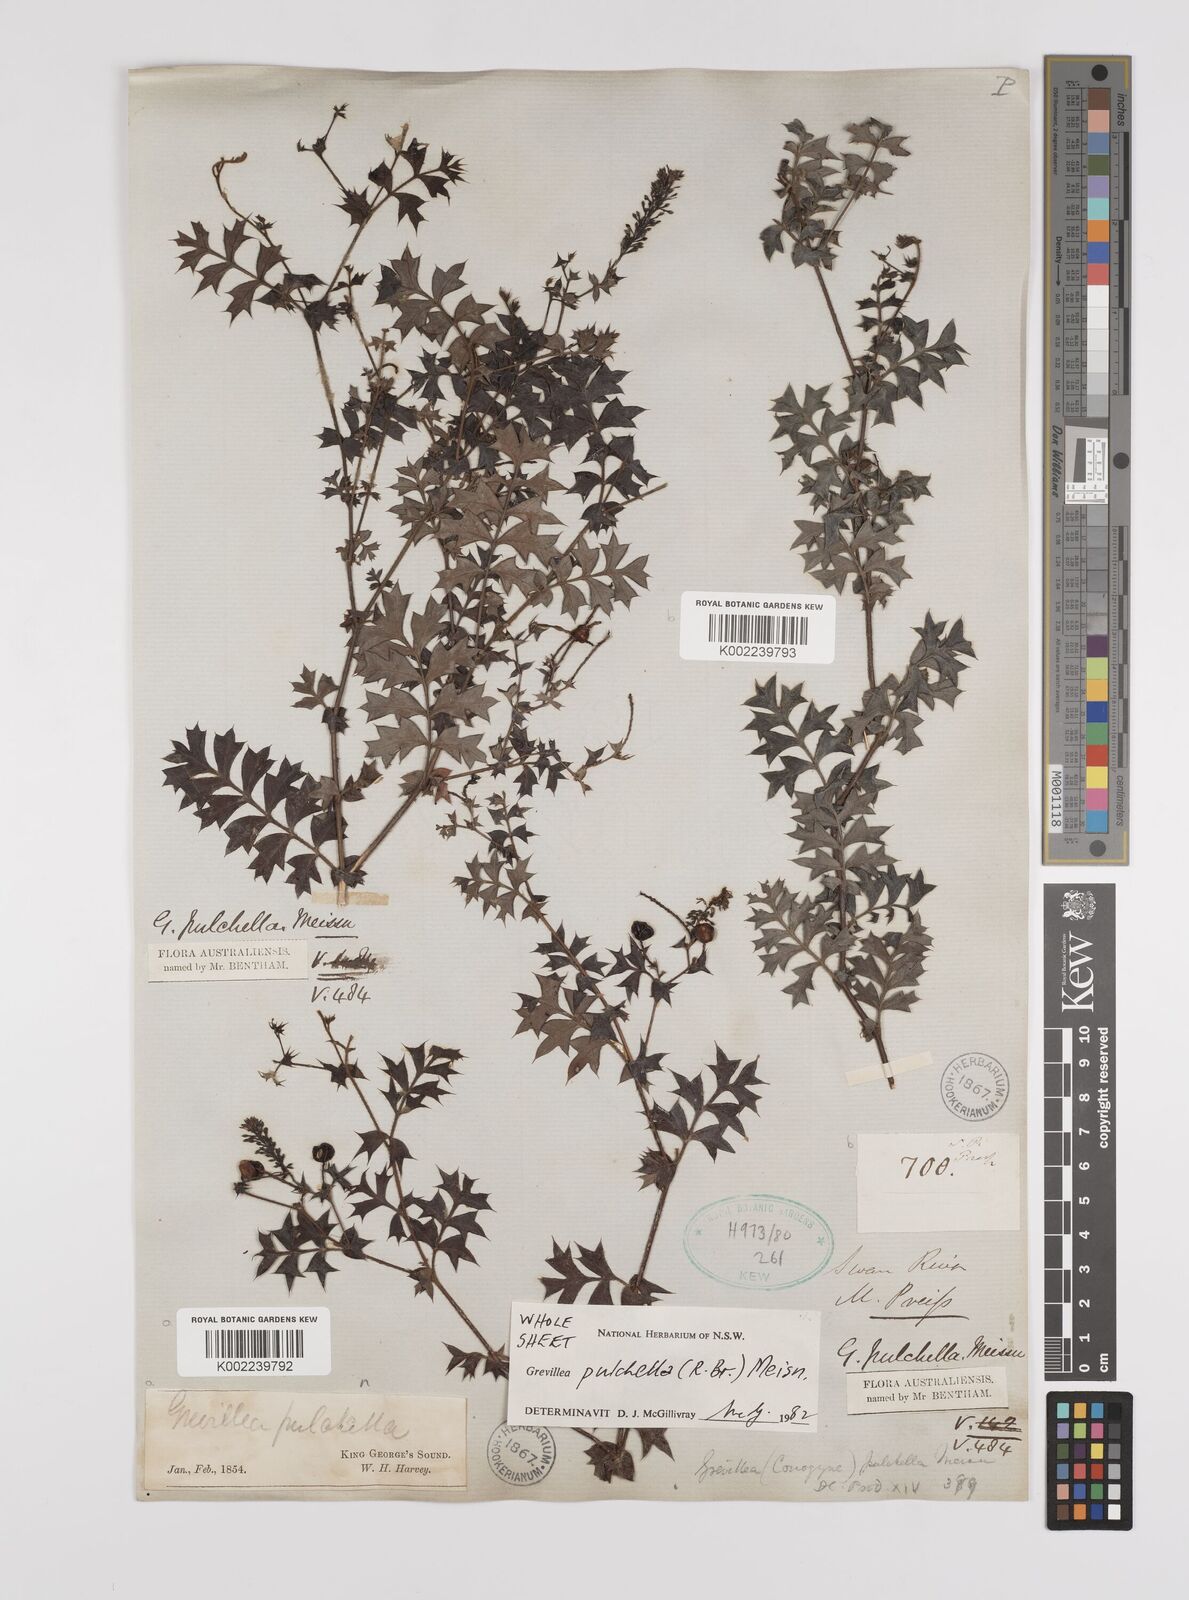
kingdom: Plantae
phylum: Tracheophyta
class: Magnoliopsida
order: Proteales
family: Proteaceae
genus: Grevillea
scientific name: Grevillea pulchella
